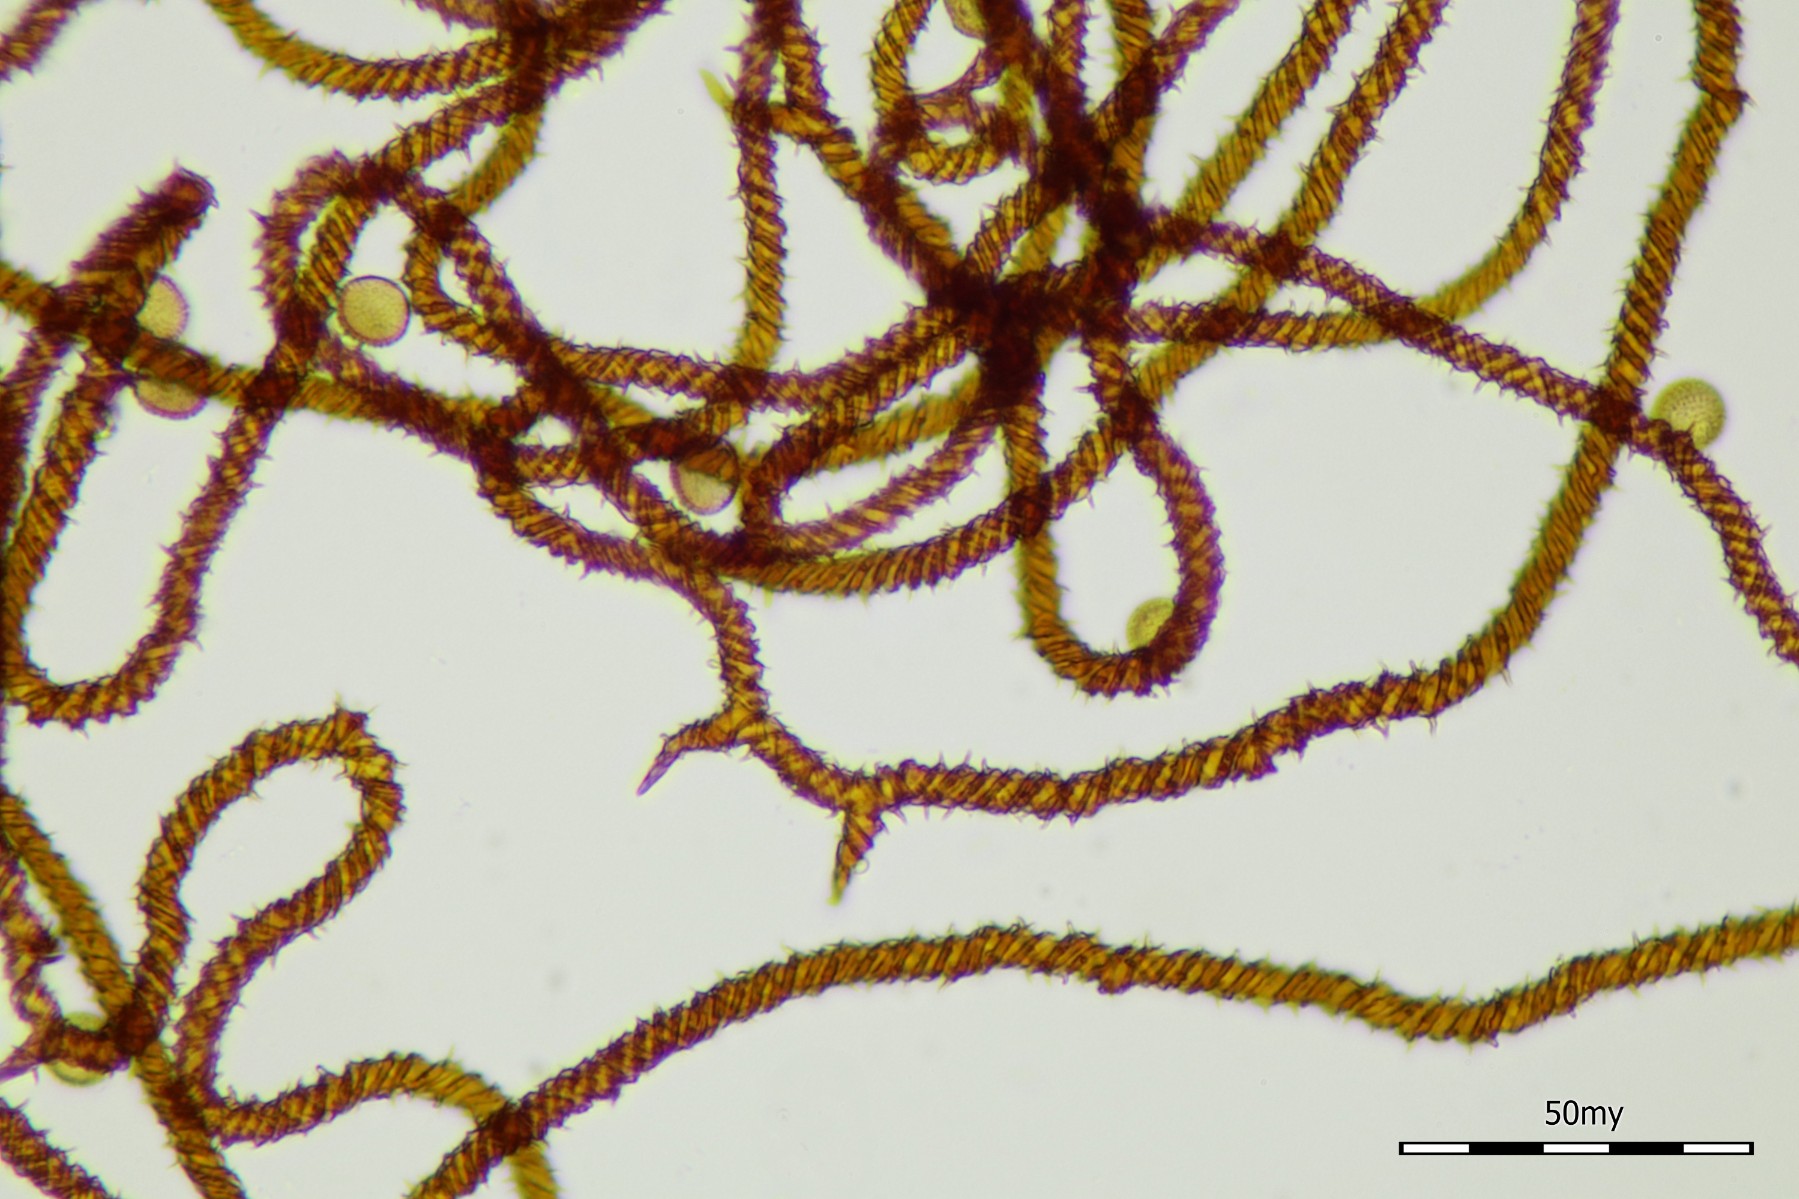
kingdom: Protozoa
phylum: Mycetozoa
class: Myxomycetes
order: Trichiales
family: Trichiaceae
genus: Metatrichia
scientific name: Metatrichia vesparia
